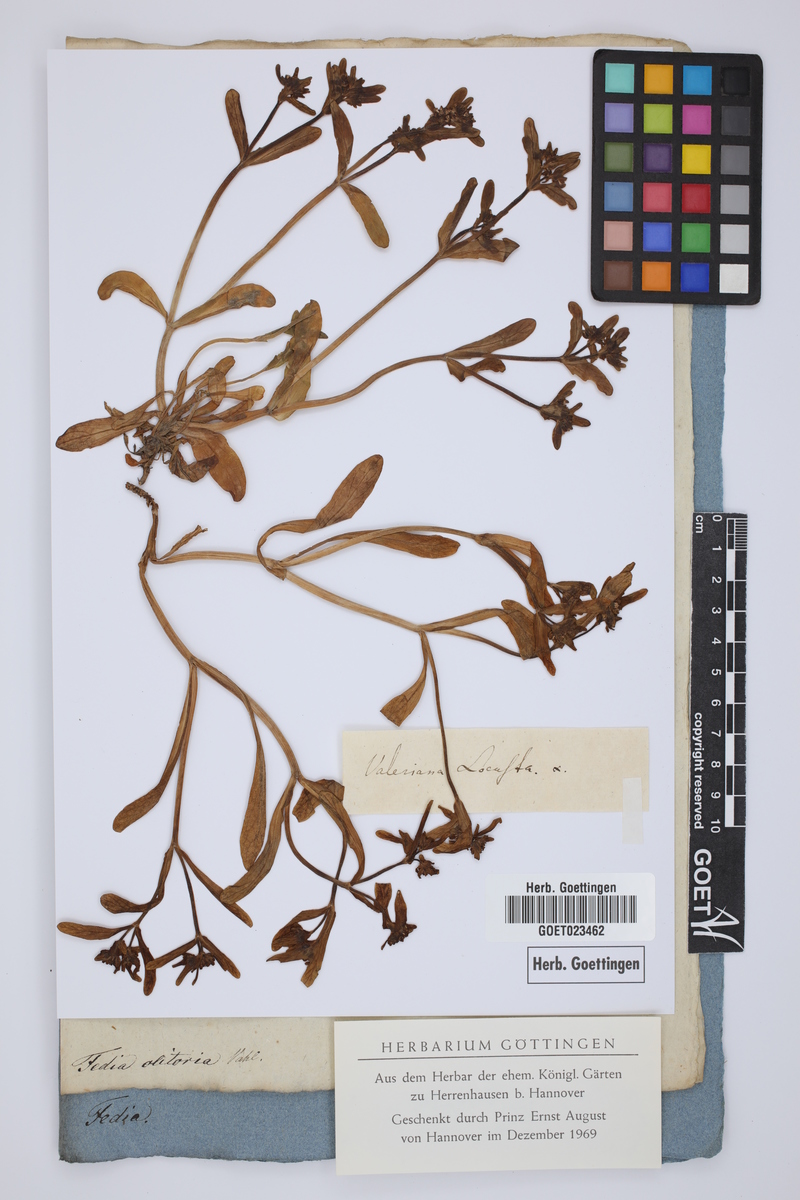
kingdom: Plantae
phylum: Tracheophyta
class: Magnoliopsida
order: Dipsacales
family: Caprifoliaceae
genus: Valerianella
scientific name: Valerianella locusta
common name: Common cornsalad
